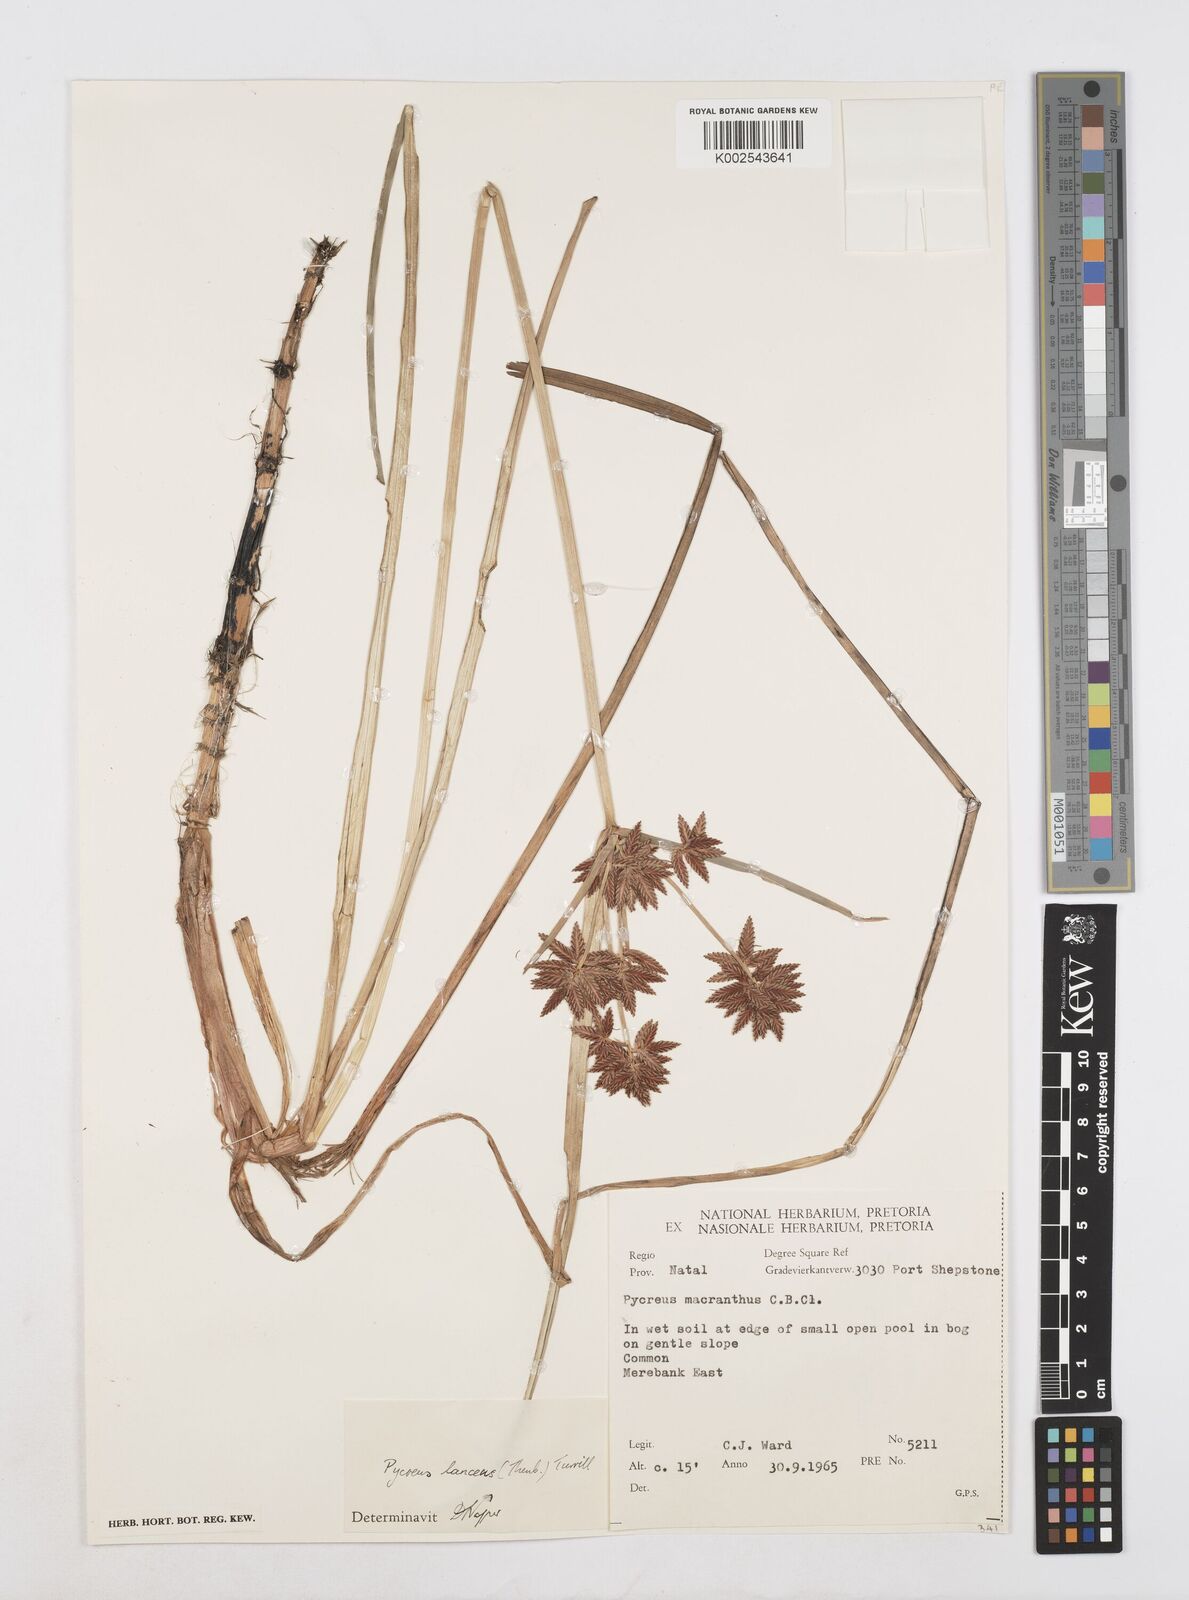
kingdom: Plantae
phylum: Tracheophyta
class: Liliopsida
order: Poales
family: Cyperaceae
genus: Cyperus
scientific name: Cyperus nitidus
